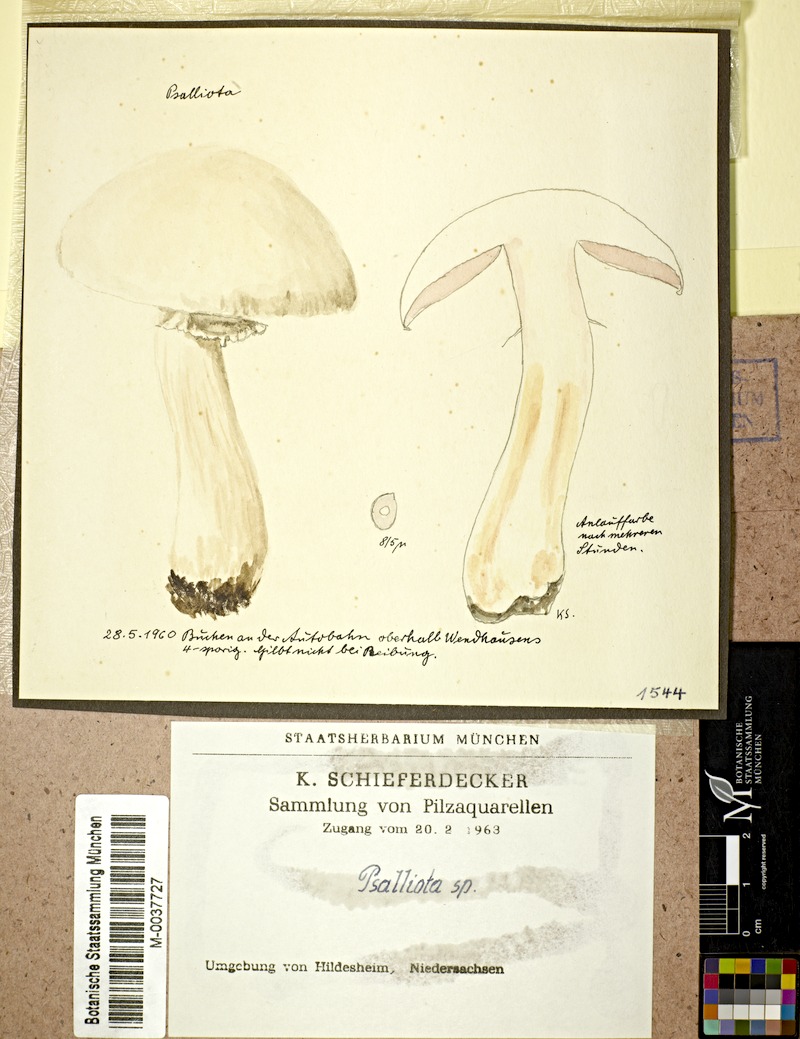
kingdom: Fungi
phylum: Basidiomycota
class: Agaricomycetes
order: Agaricales
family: Agaricaceae
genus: Agaricus
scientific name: Agaricus
